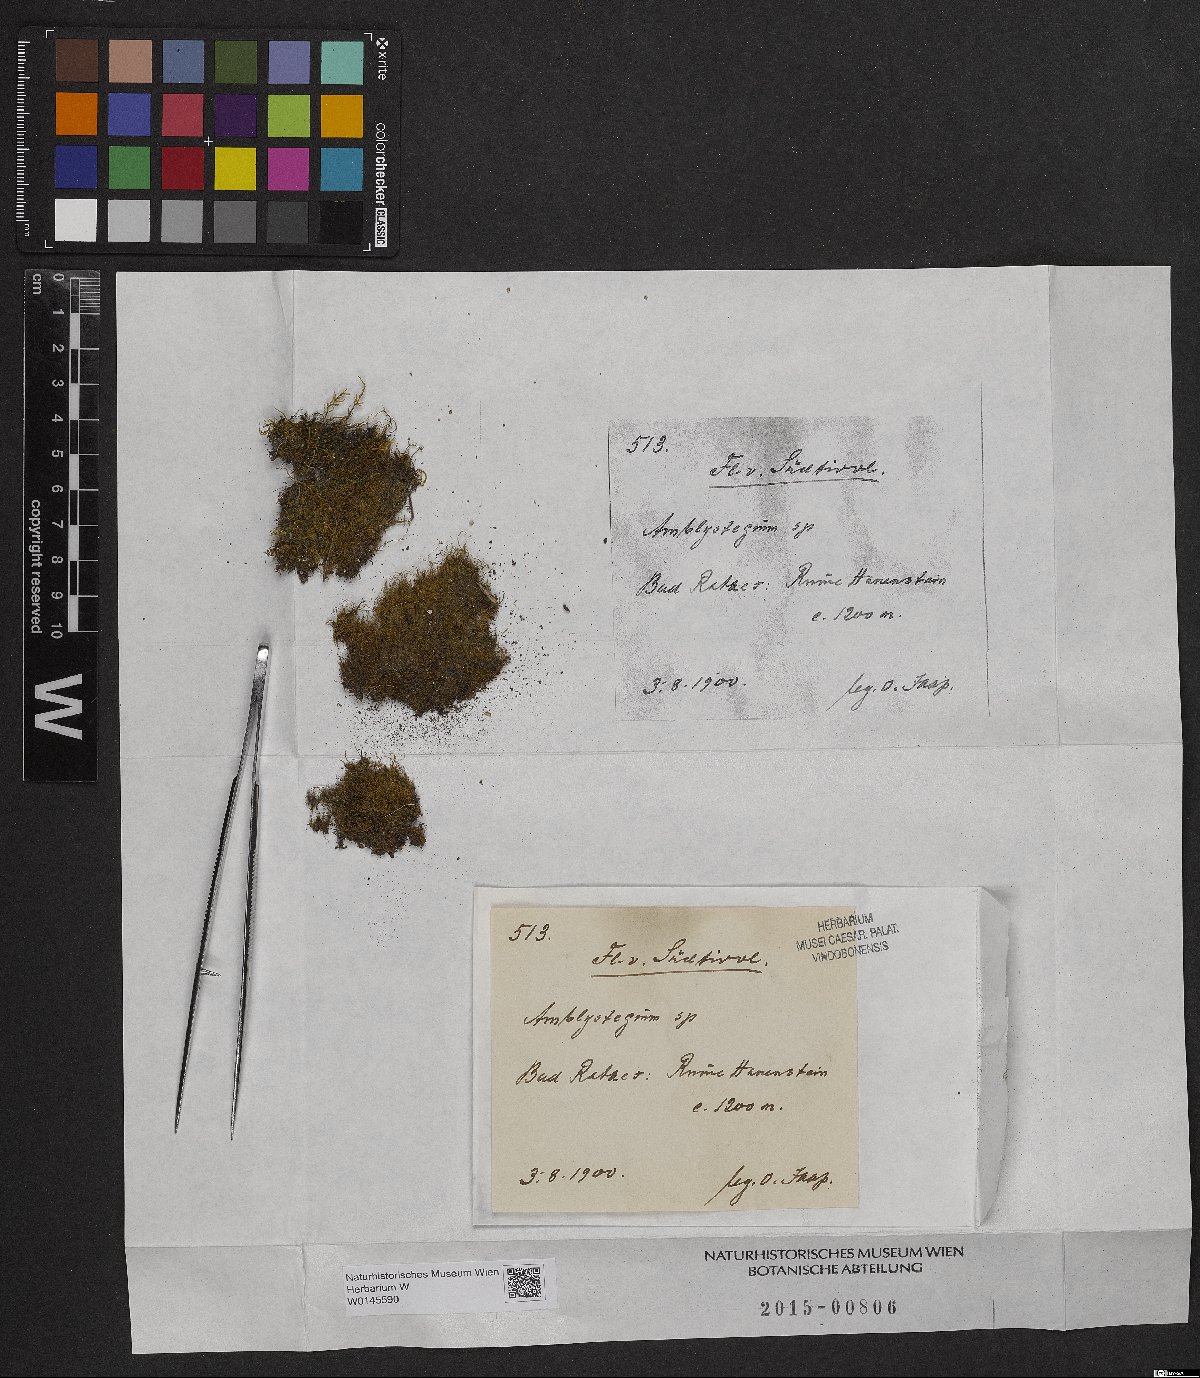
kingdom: Plantae
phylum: Bryophyta
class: Bryopsida
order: Hypnales
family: Amblystegiaceae
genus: Amblystegium
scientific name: Amblystegium
